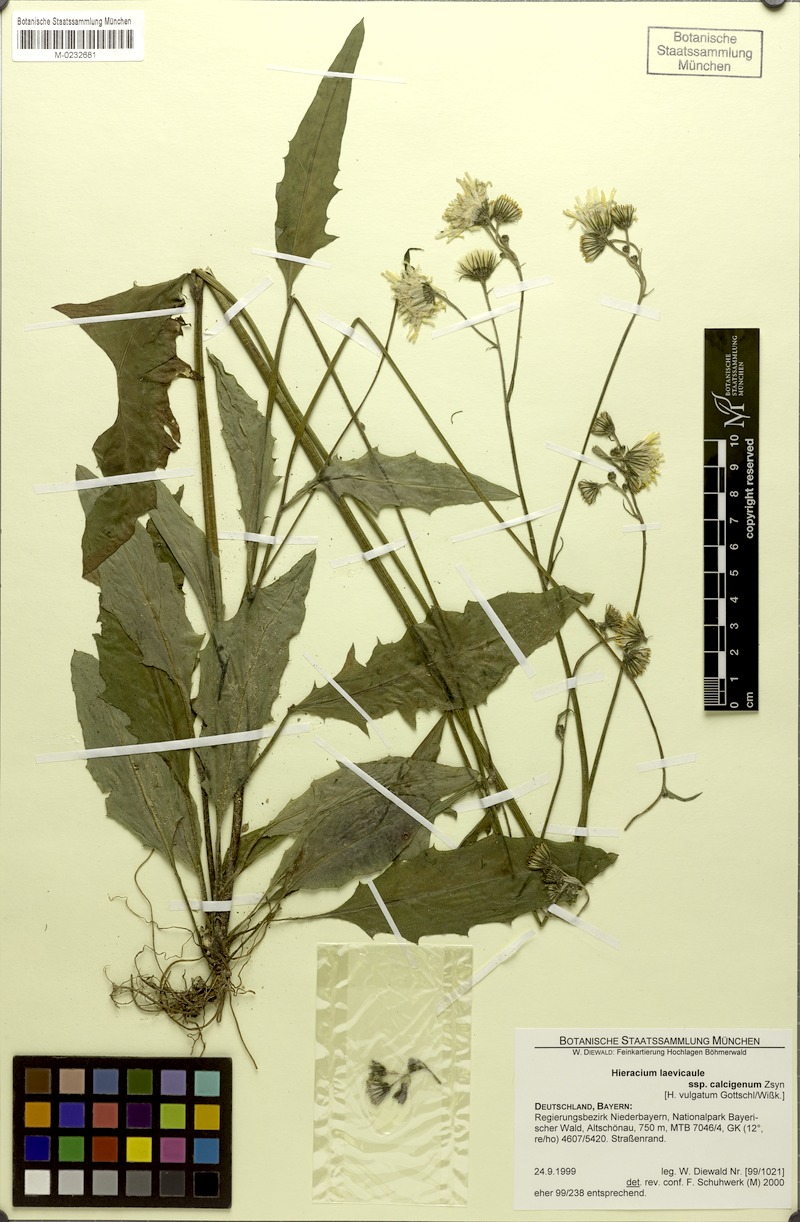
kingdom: Plantae
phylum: Tracheophyta
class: Magnoliopsida
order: Asterales
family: Asteraceae
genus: Hieracium
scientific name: Hieracium
